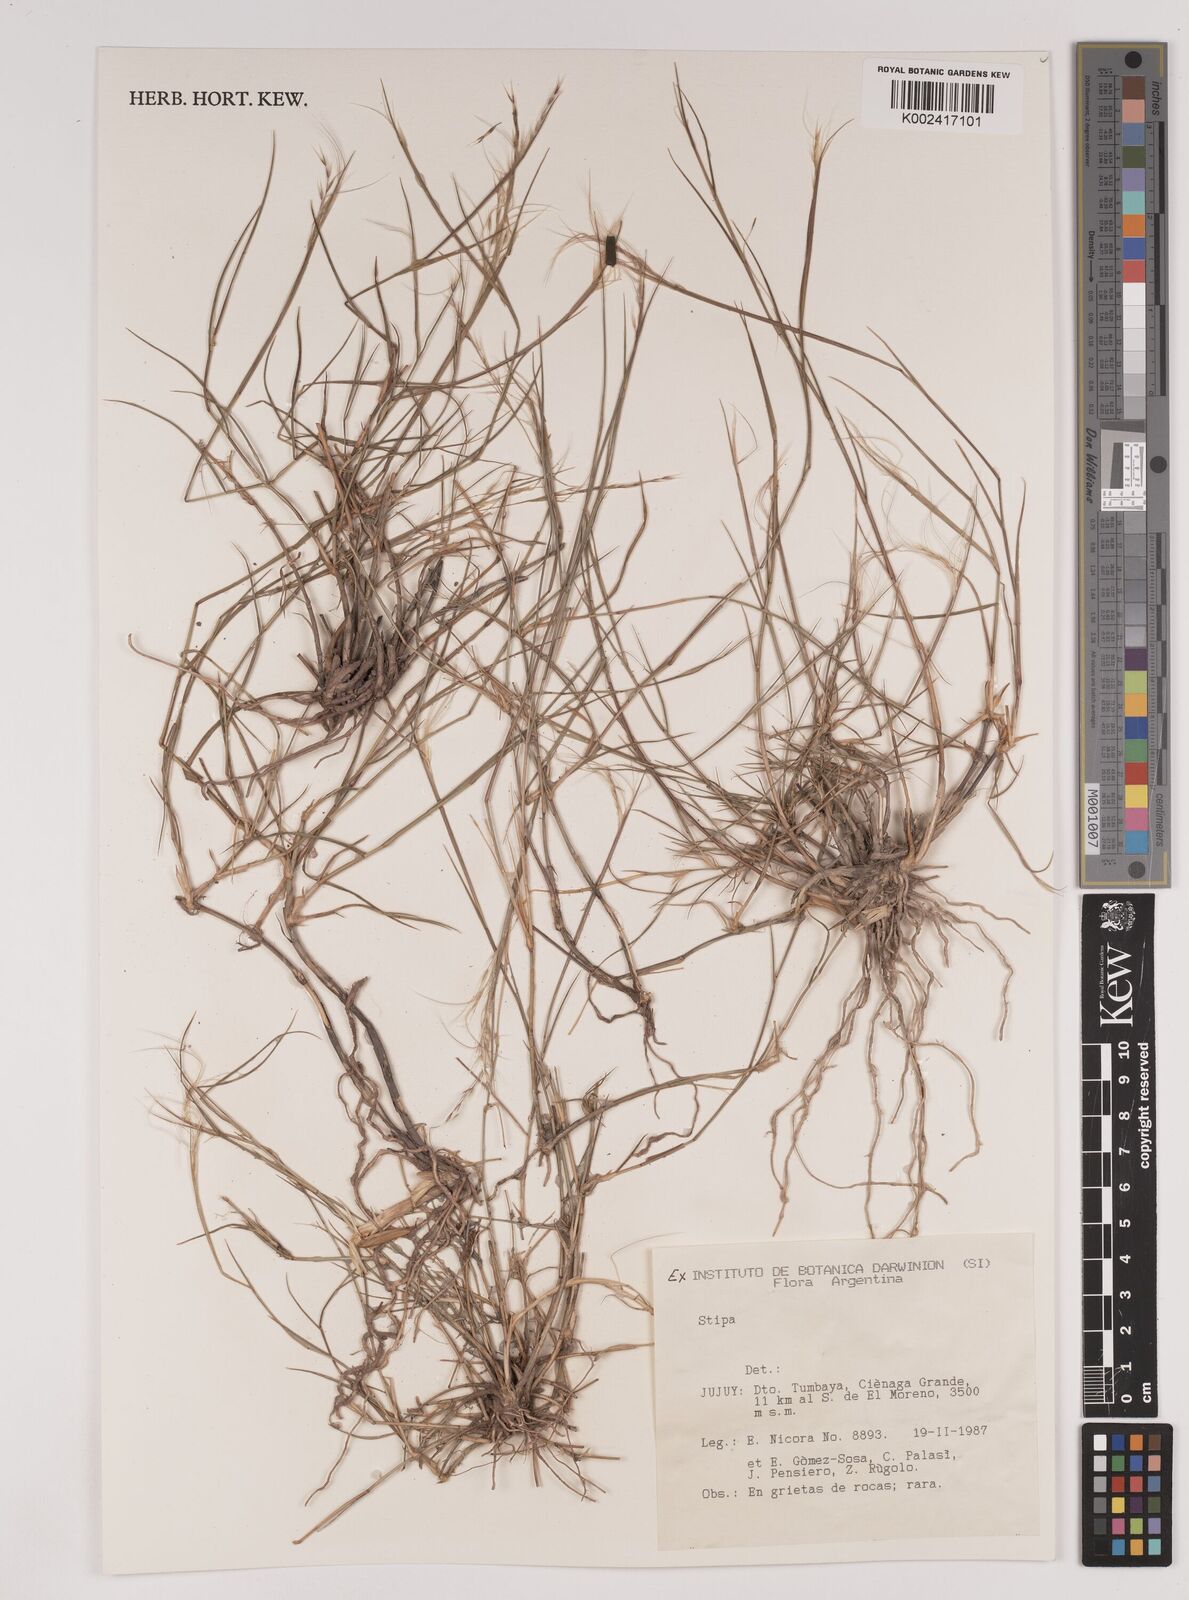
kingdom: Plantae
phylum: Tracheophyta
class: Liliopsida
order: Poales
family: Poaceae
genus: Stipa
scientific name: Stipa
